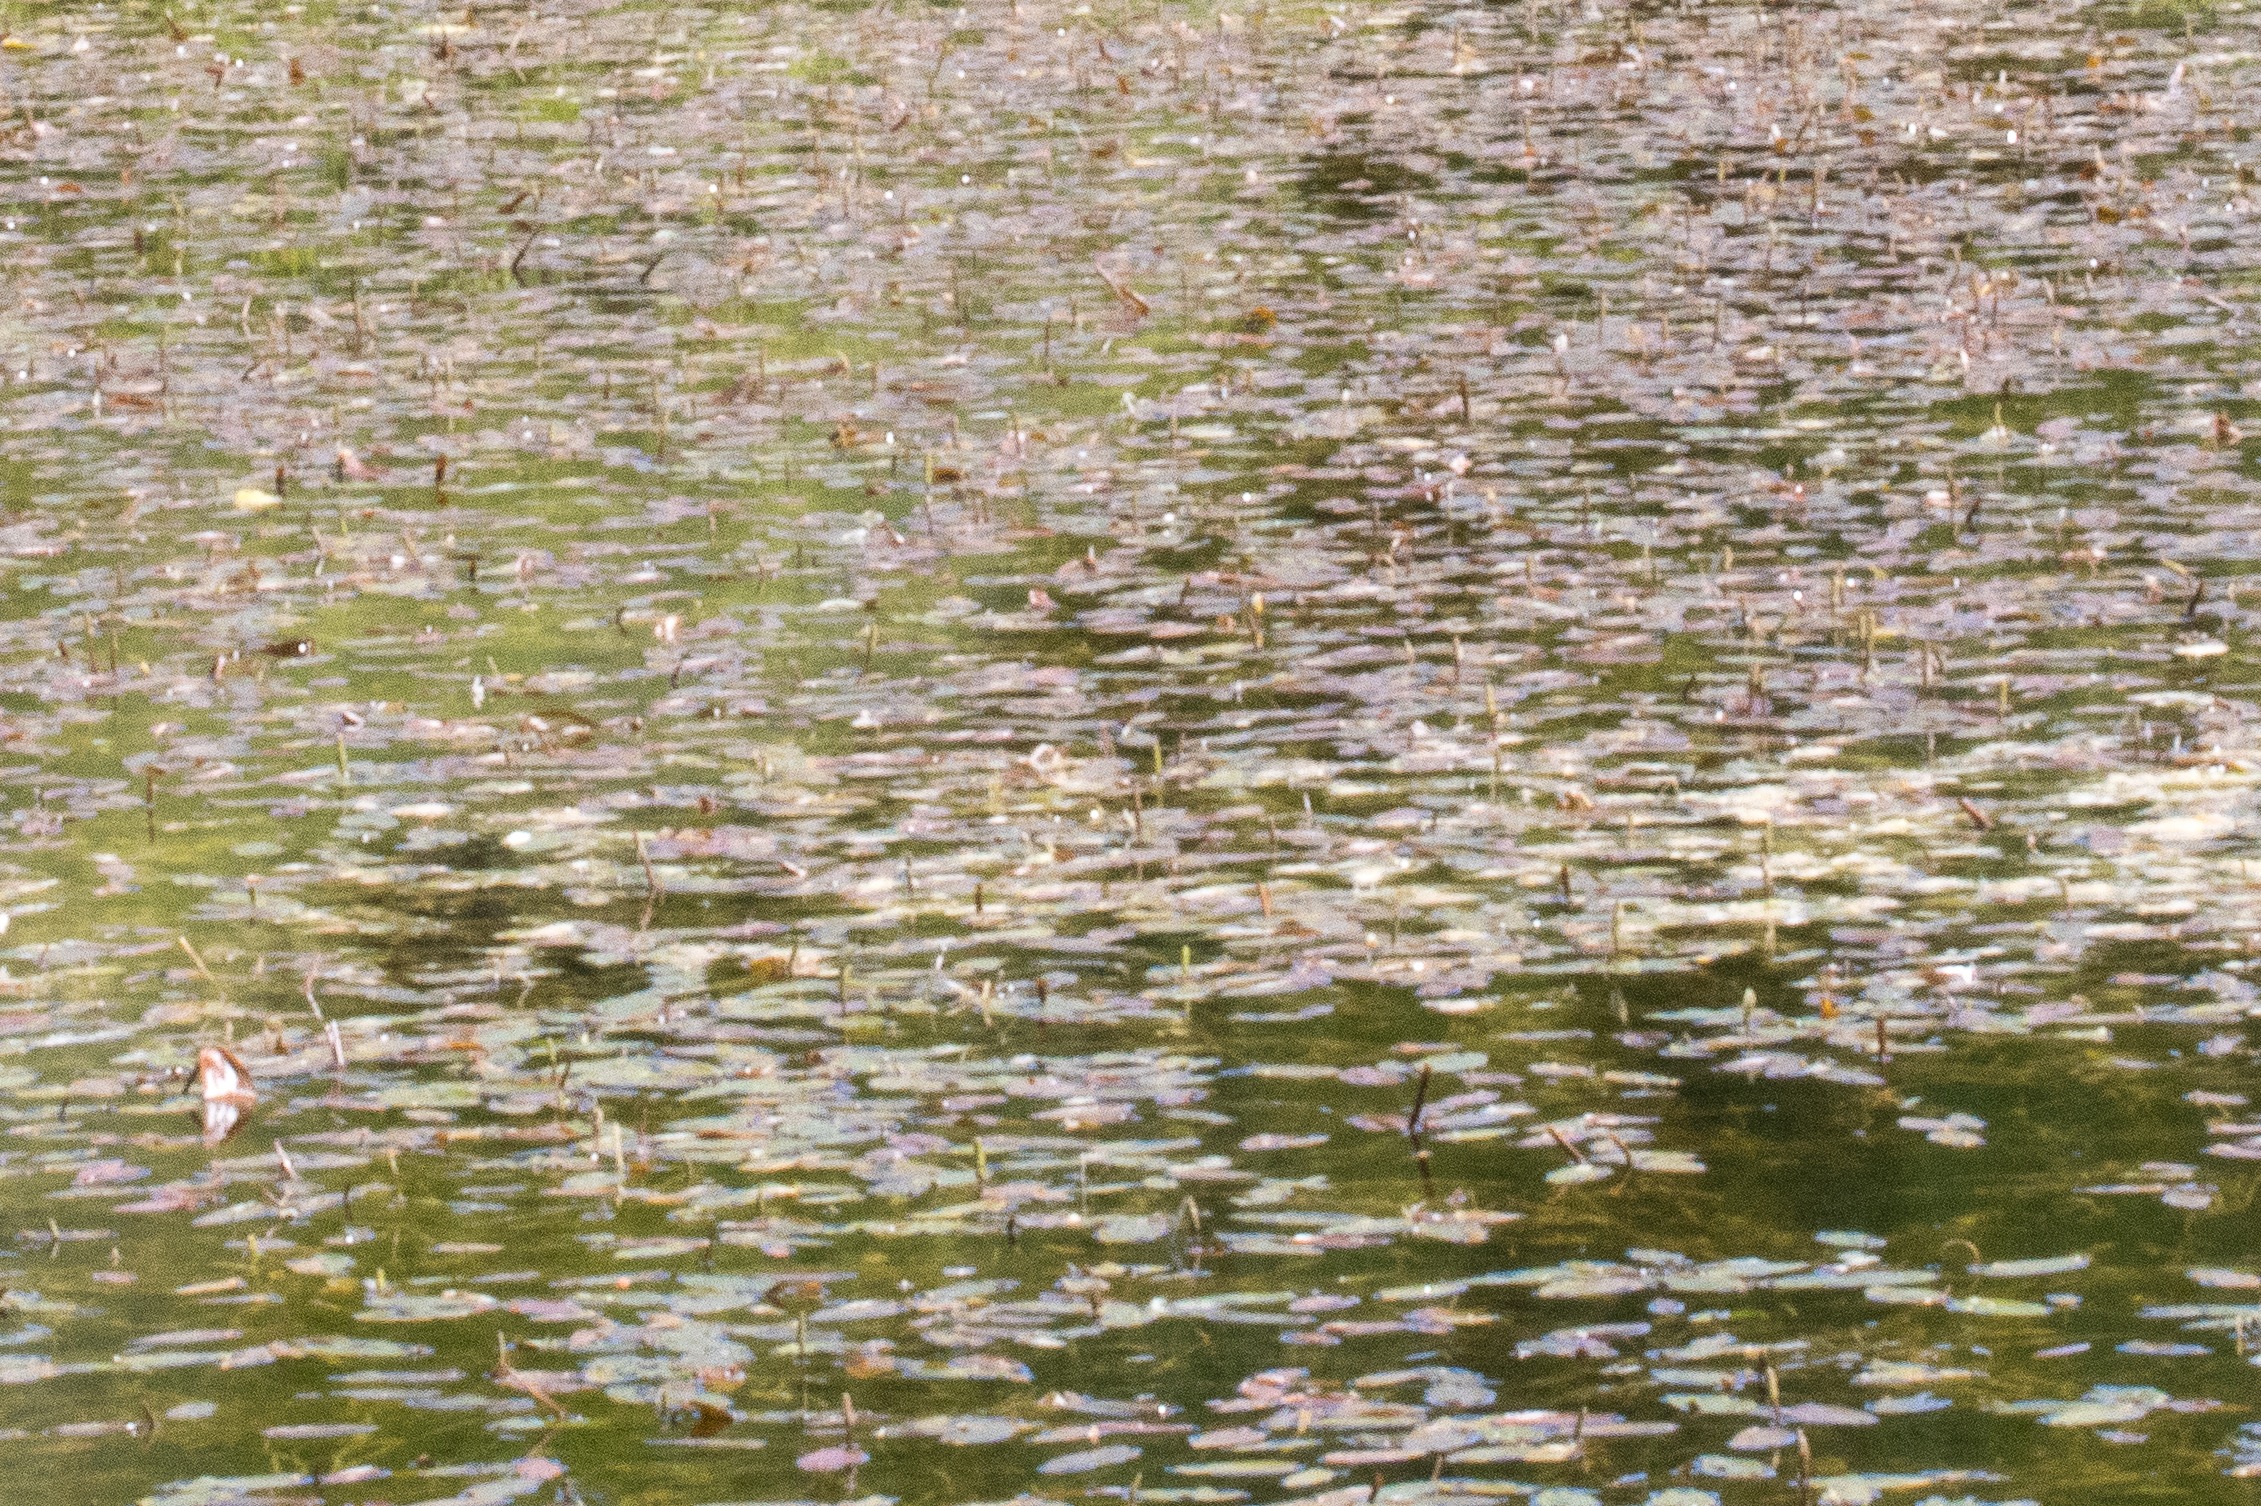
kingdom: Plantae
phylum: Tracheophyta
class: Liliopsida
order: Alismatales
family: Potamogetonaceae
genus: Potamogeton
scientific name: Potamogeton natans
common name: Svømmende vandaks
